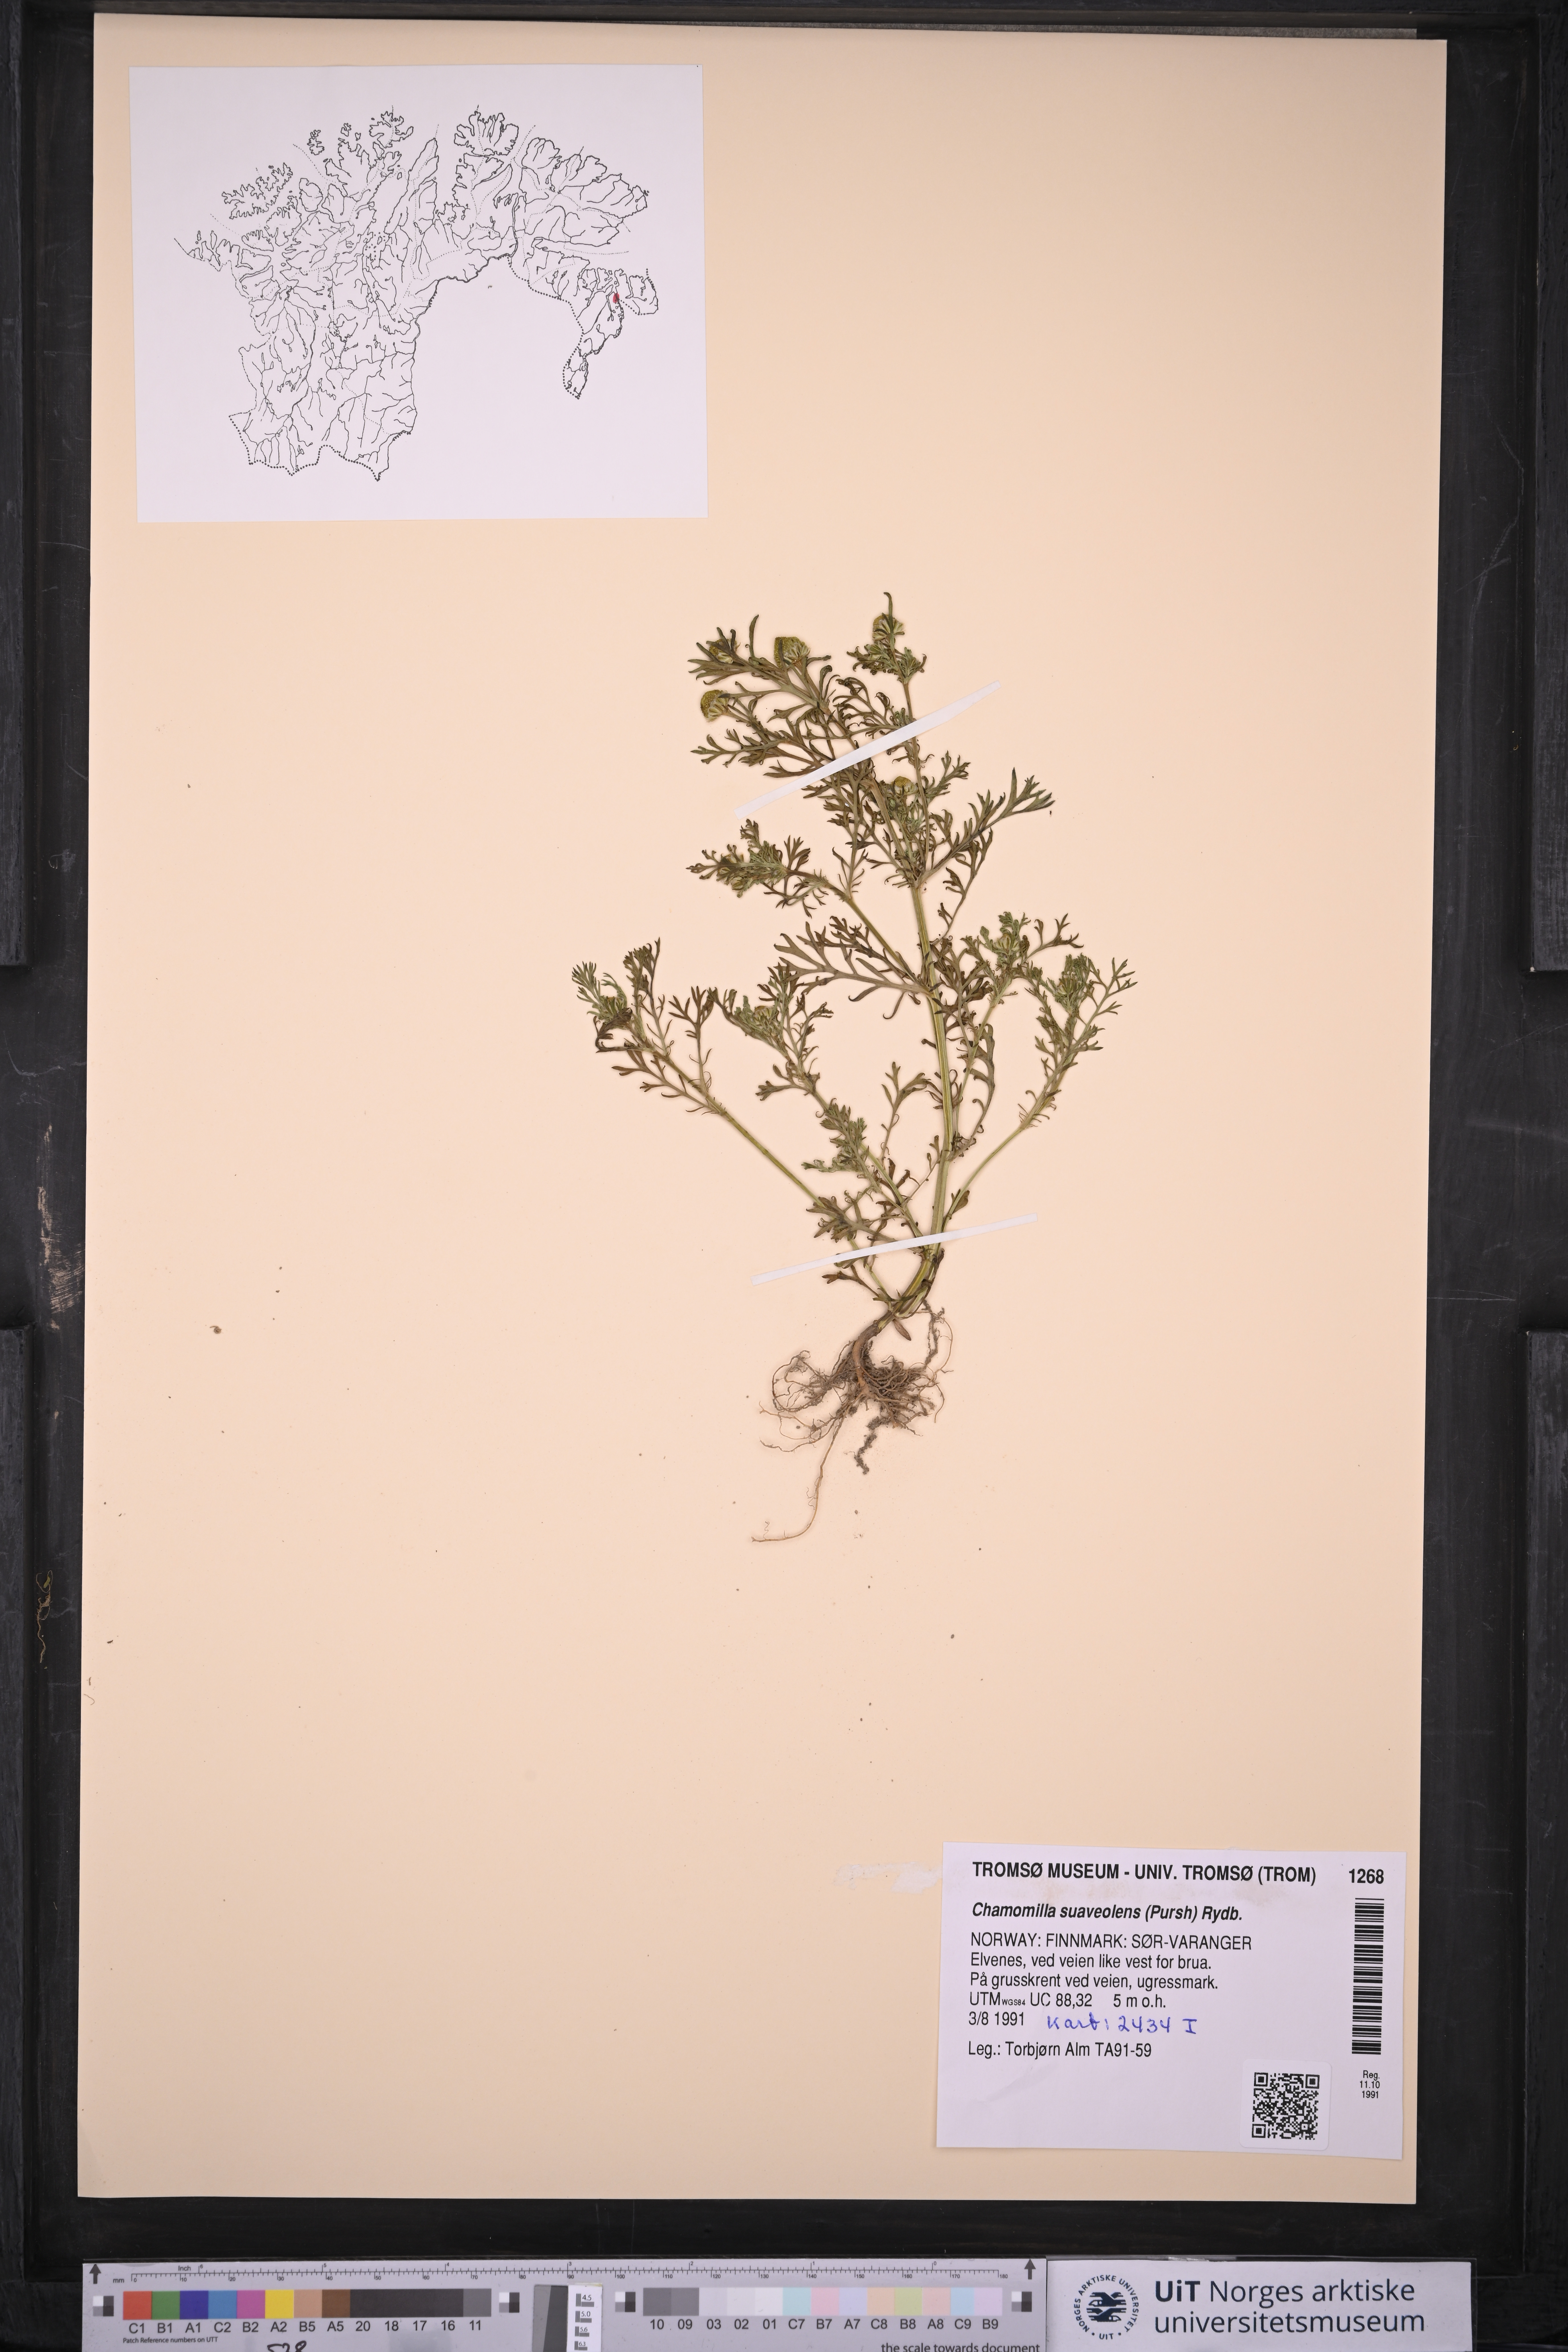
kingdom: Plantae
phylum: Tracheophyta
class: Magnoliopsida
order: Asterales
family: Asteraceae
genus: Matricaria
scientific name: Matricaria discoidea
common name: Disc mayweed
